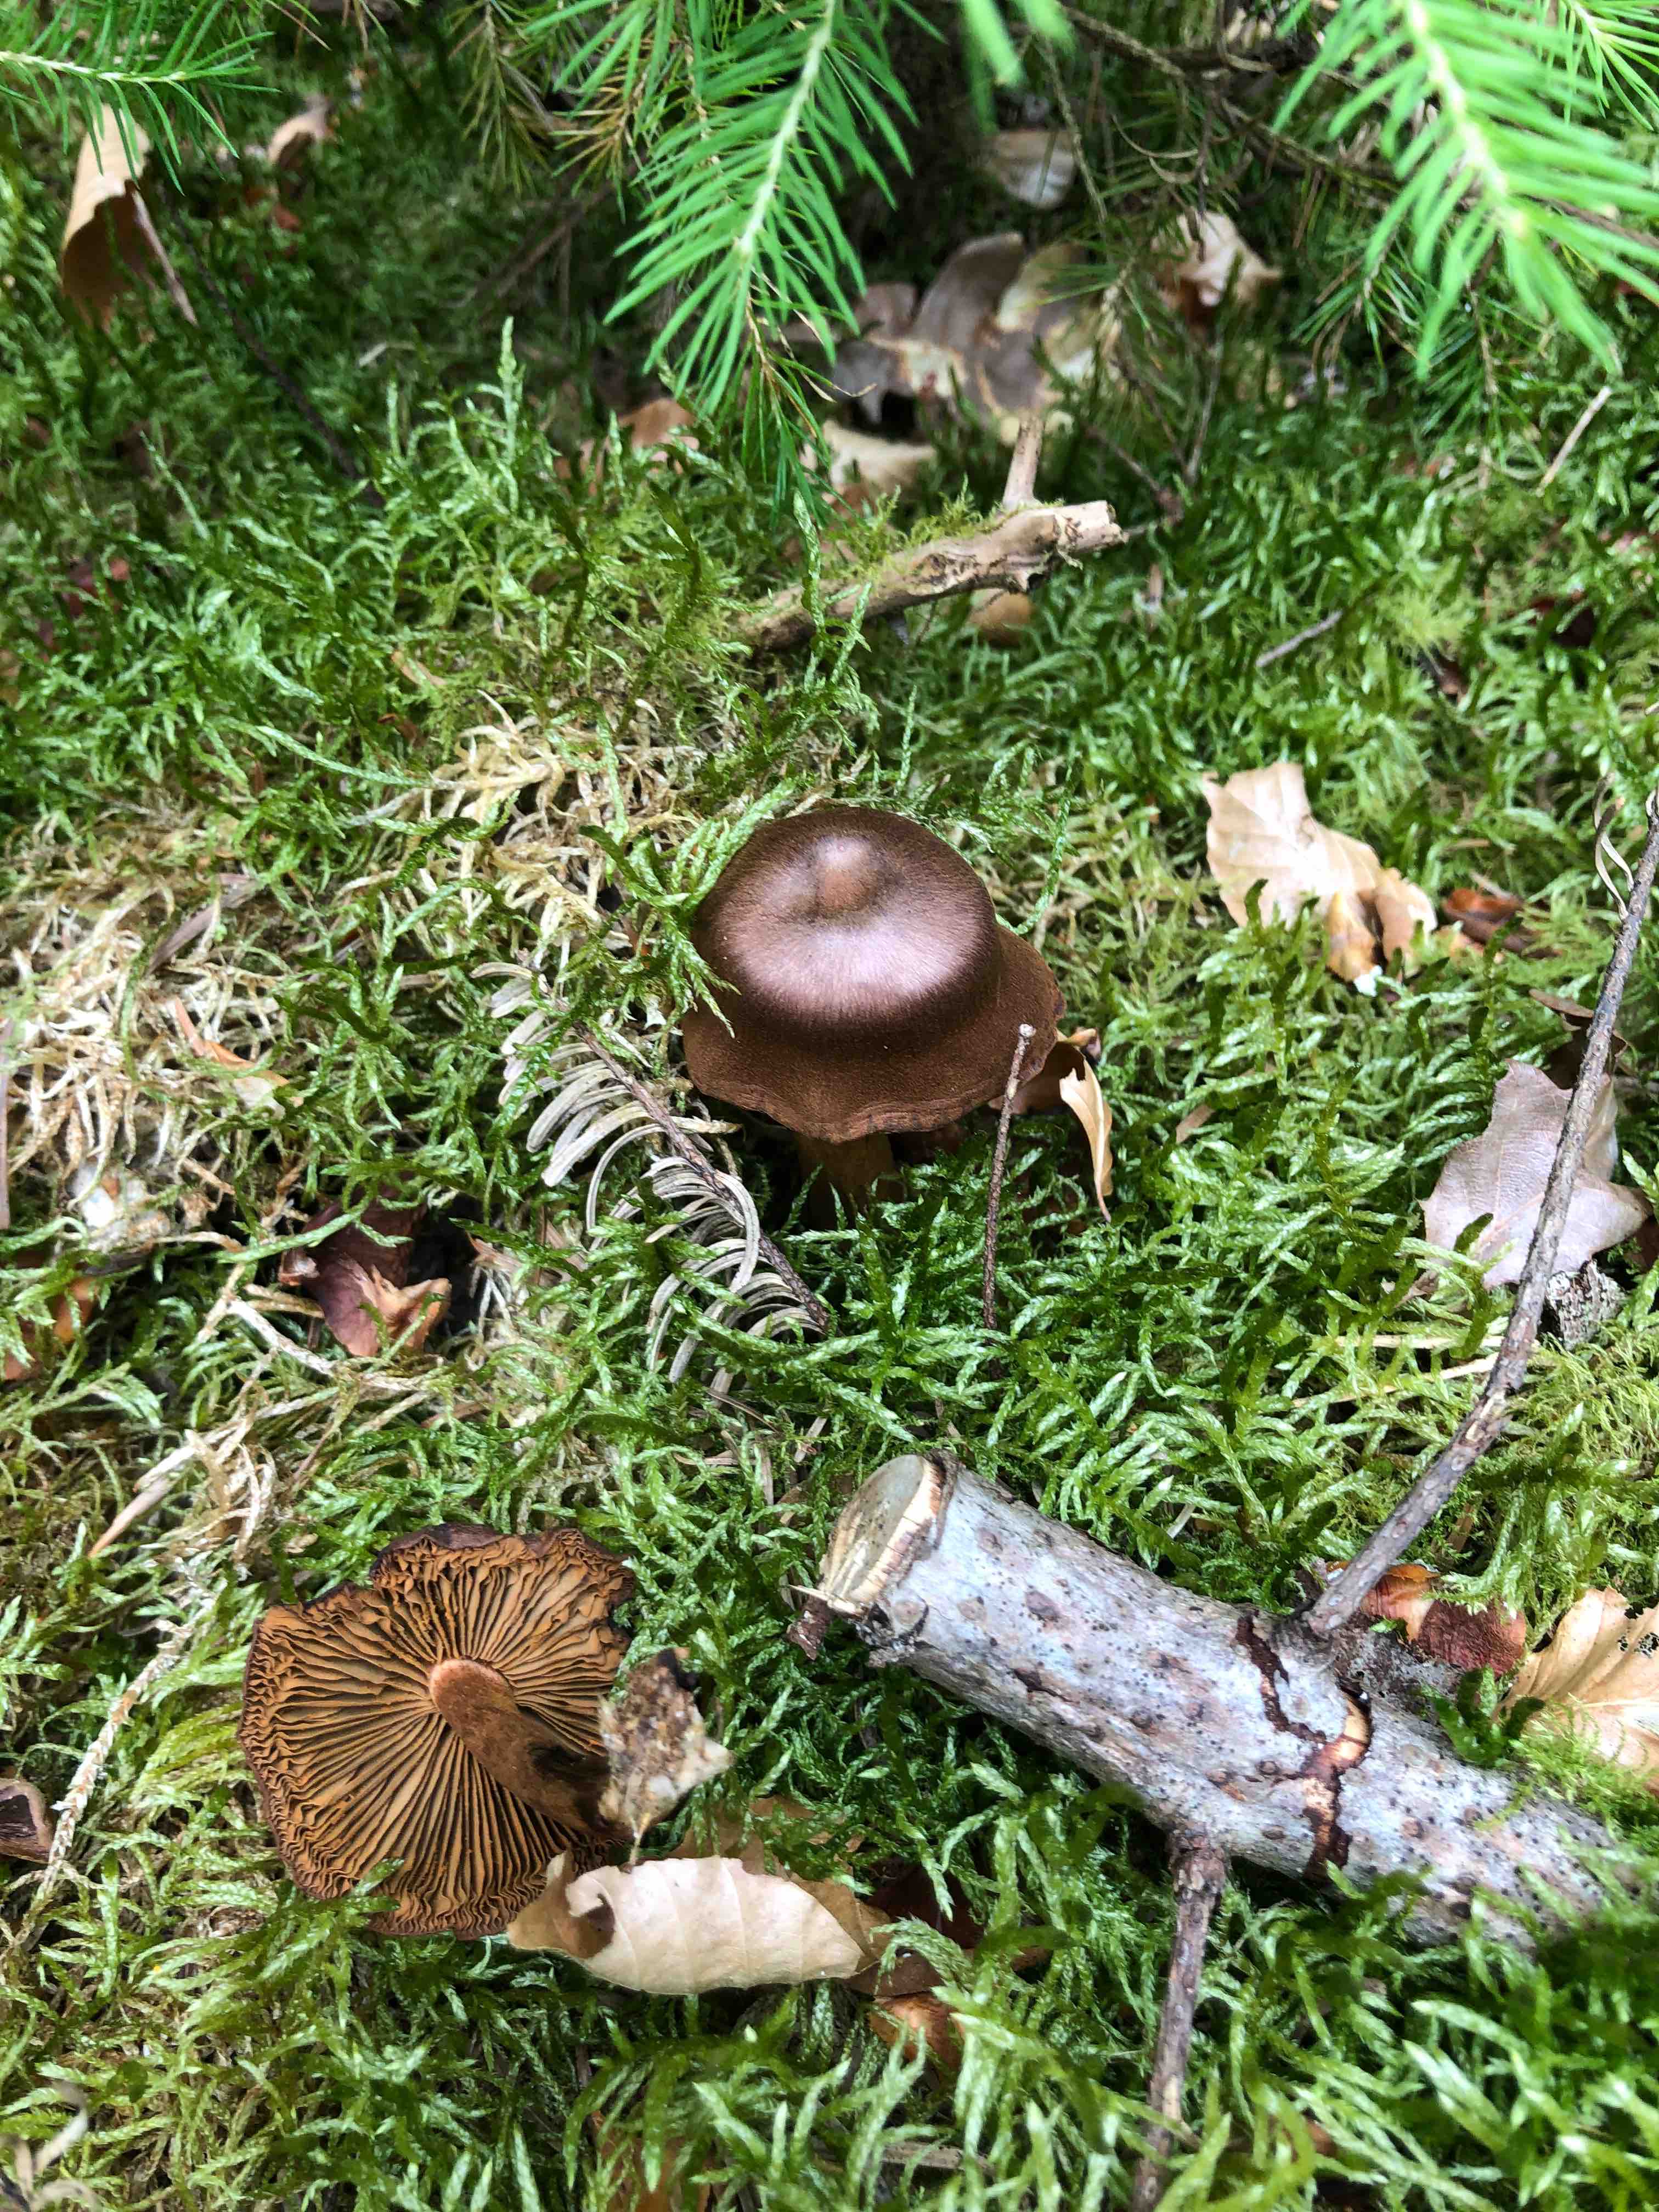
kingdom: Fungi
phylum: Basidiomycota
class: Agaricomycetes
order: Agaricales
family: Cortinariaceae
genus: Cortinarius
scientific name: Cortinarius
